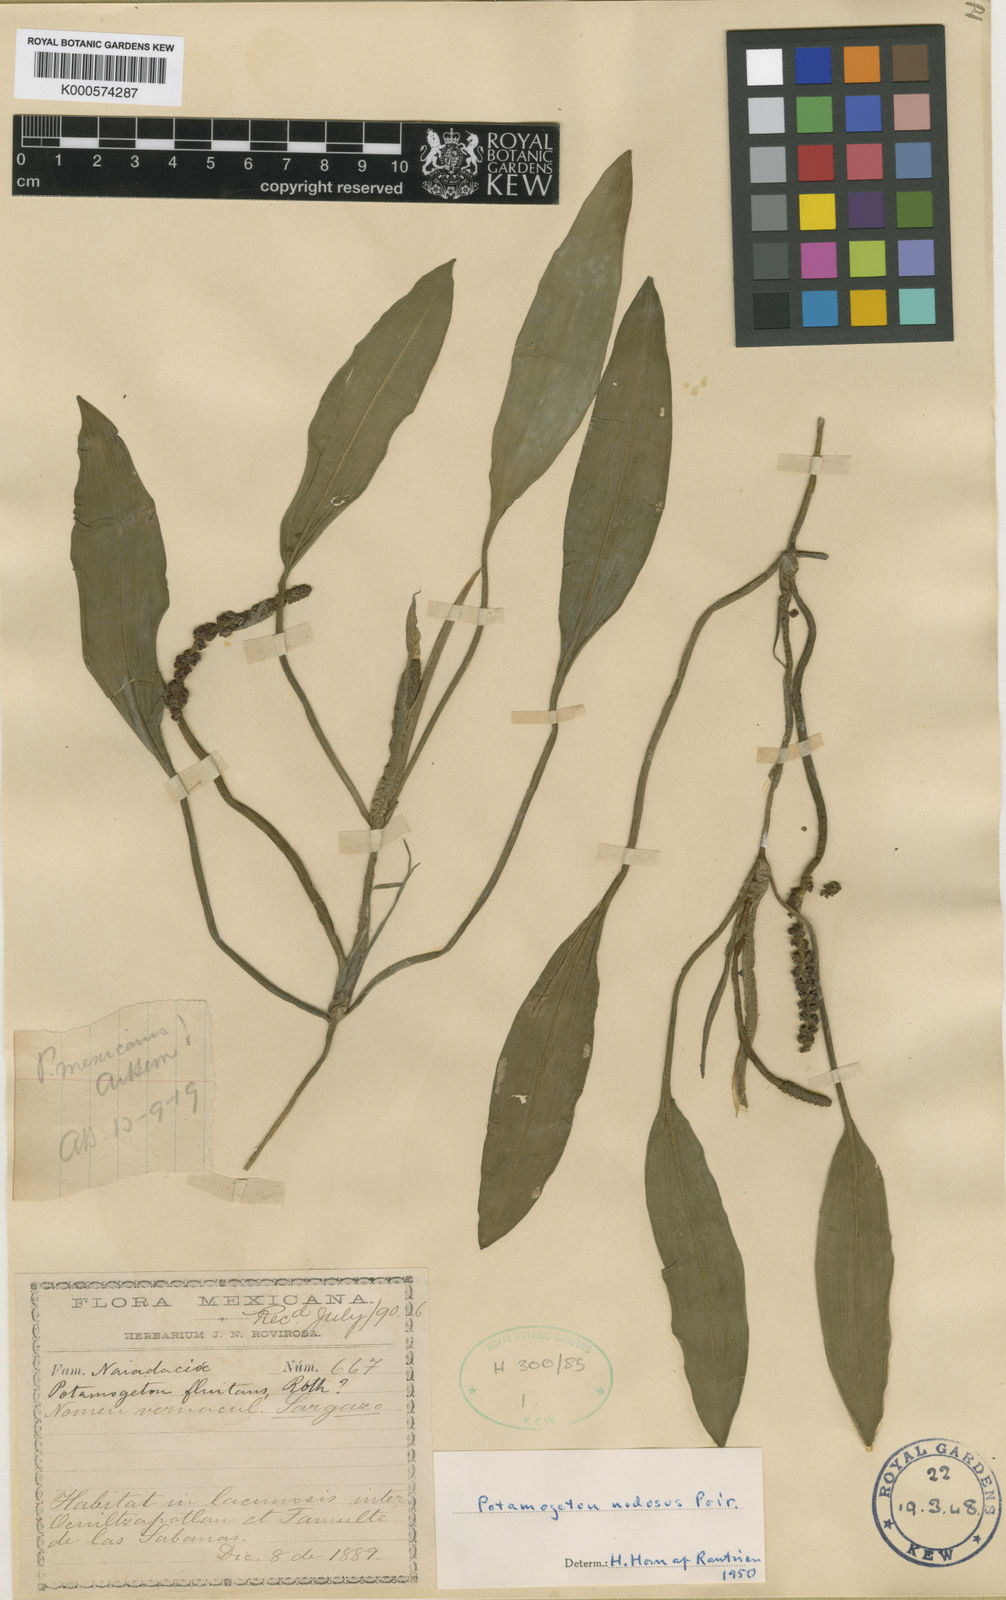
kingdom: Plantae
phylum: Tracheophyta
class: Liliopsida
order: Alismatales
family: Potamogetonaceae
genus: Potamogeton
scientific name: Potamogeton nodosus
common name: Loddon pondweed
